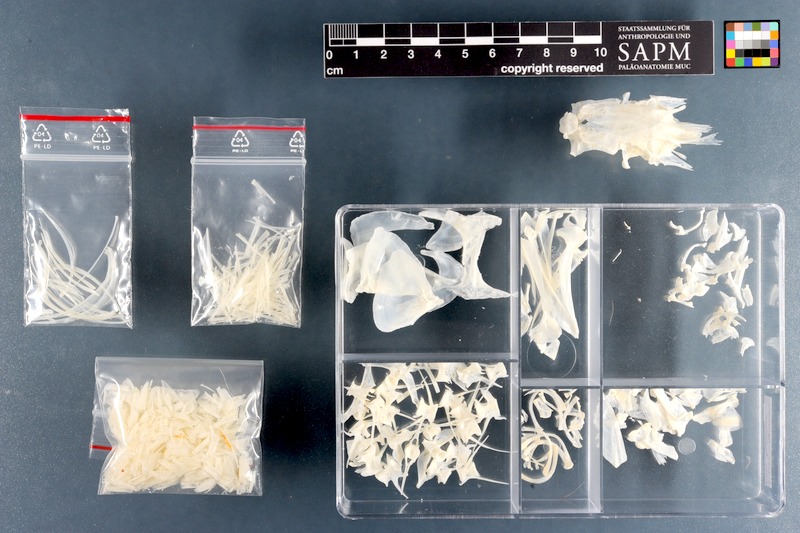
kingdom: Animalia
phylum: Chordata
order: Mugiliformes
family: Mugilidae
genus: Chelon
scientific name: Chelon richardsonii
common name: South african mullet
